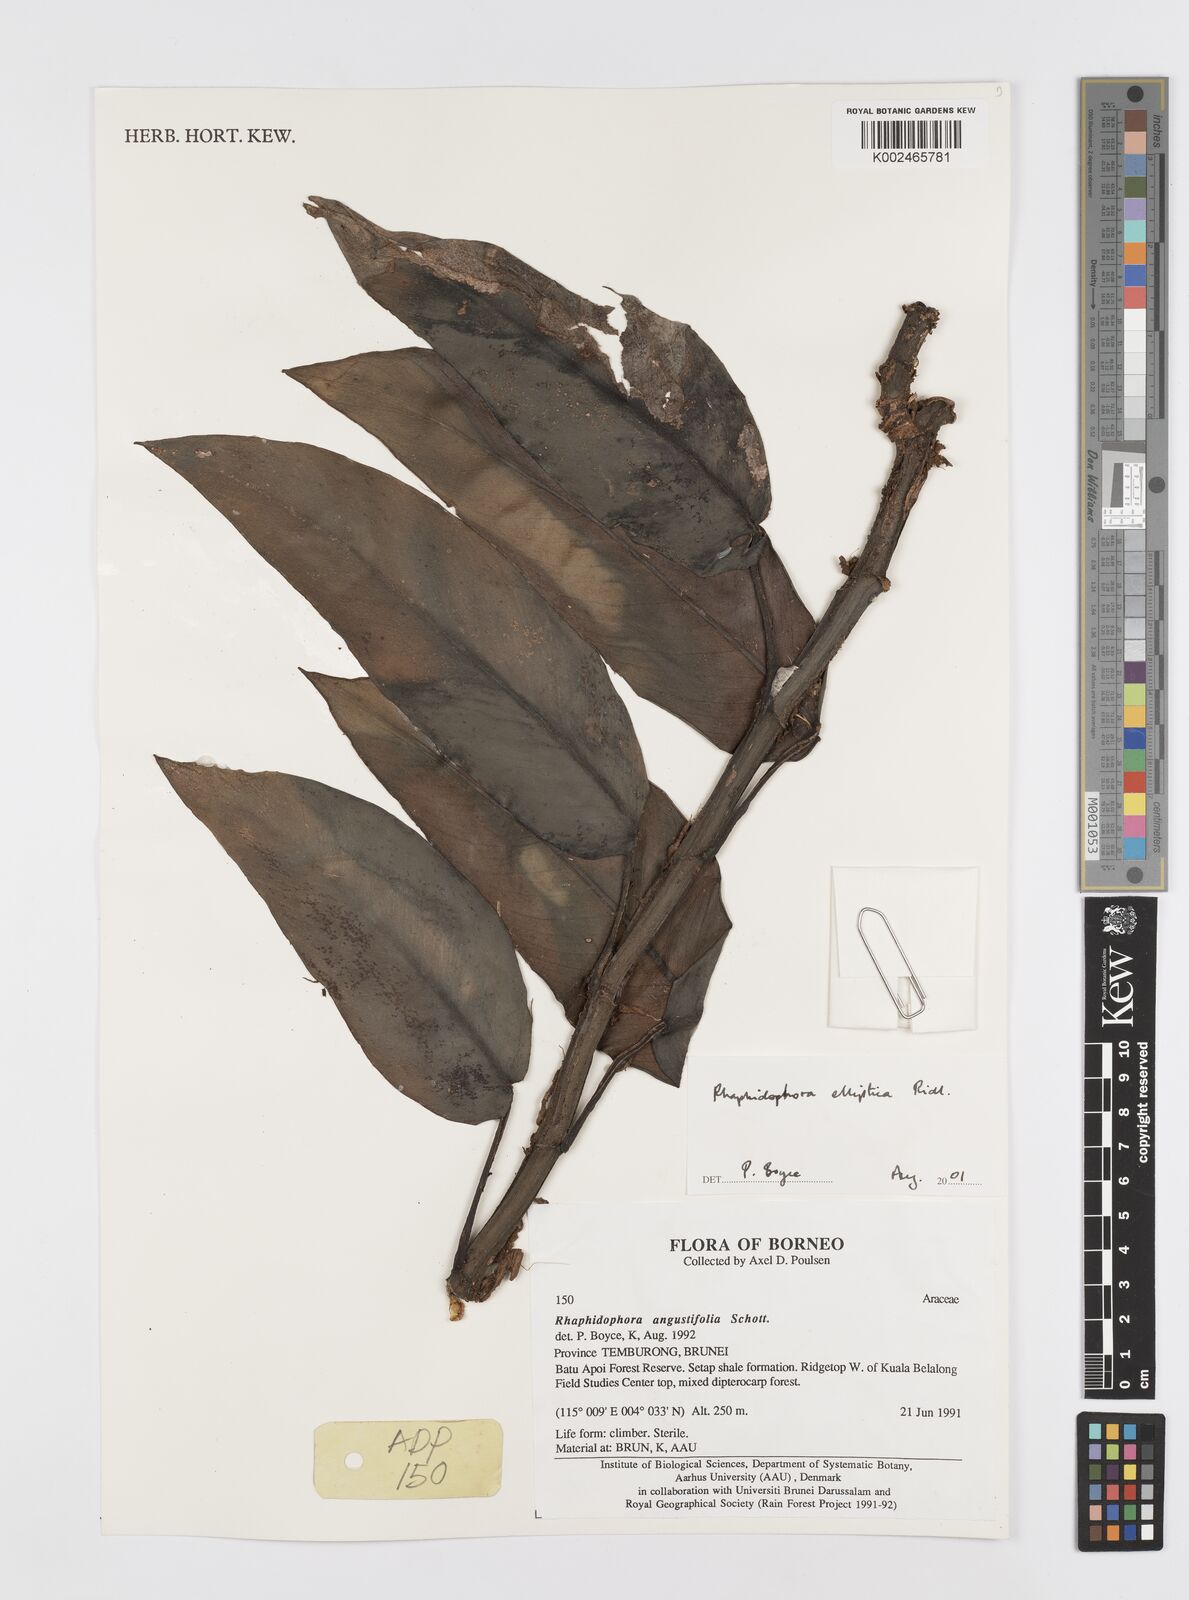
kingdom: Plantae
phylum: Tracheophyta
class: Liliopsida
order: Alismatales
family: Araceae
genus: Rhaphidophora
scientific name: Rhaphidophora elliptica
